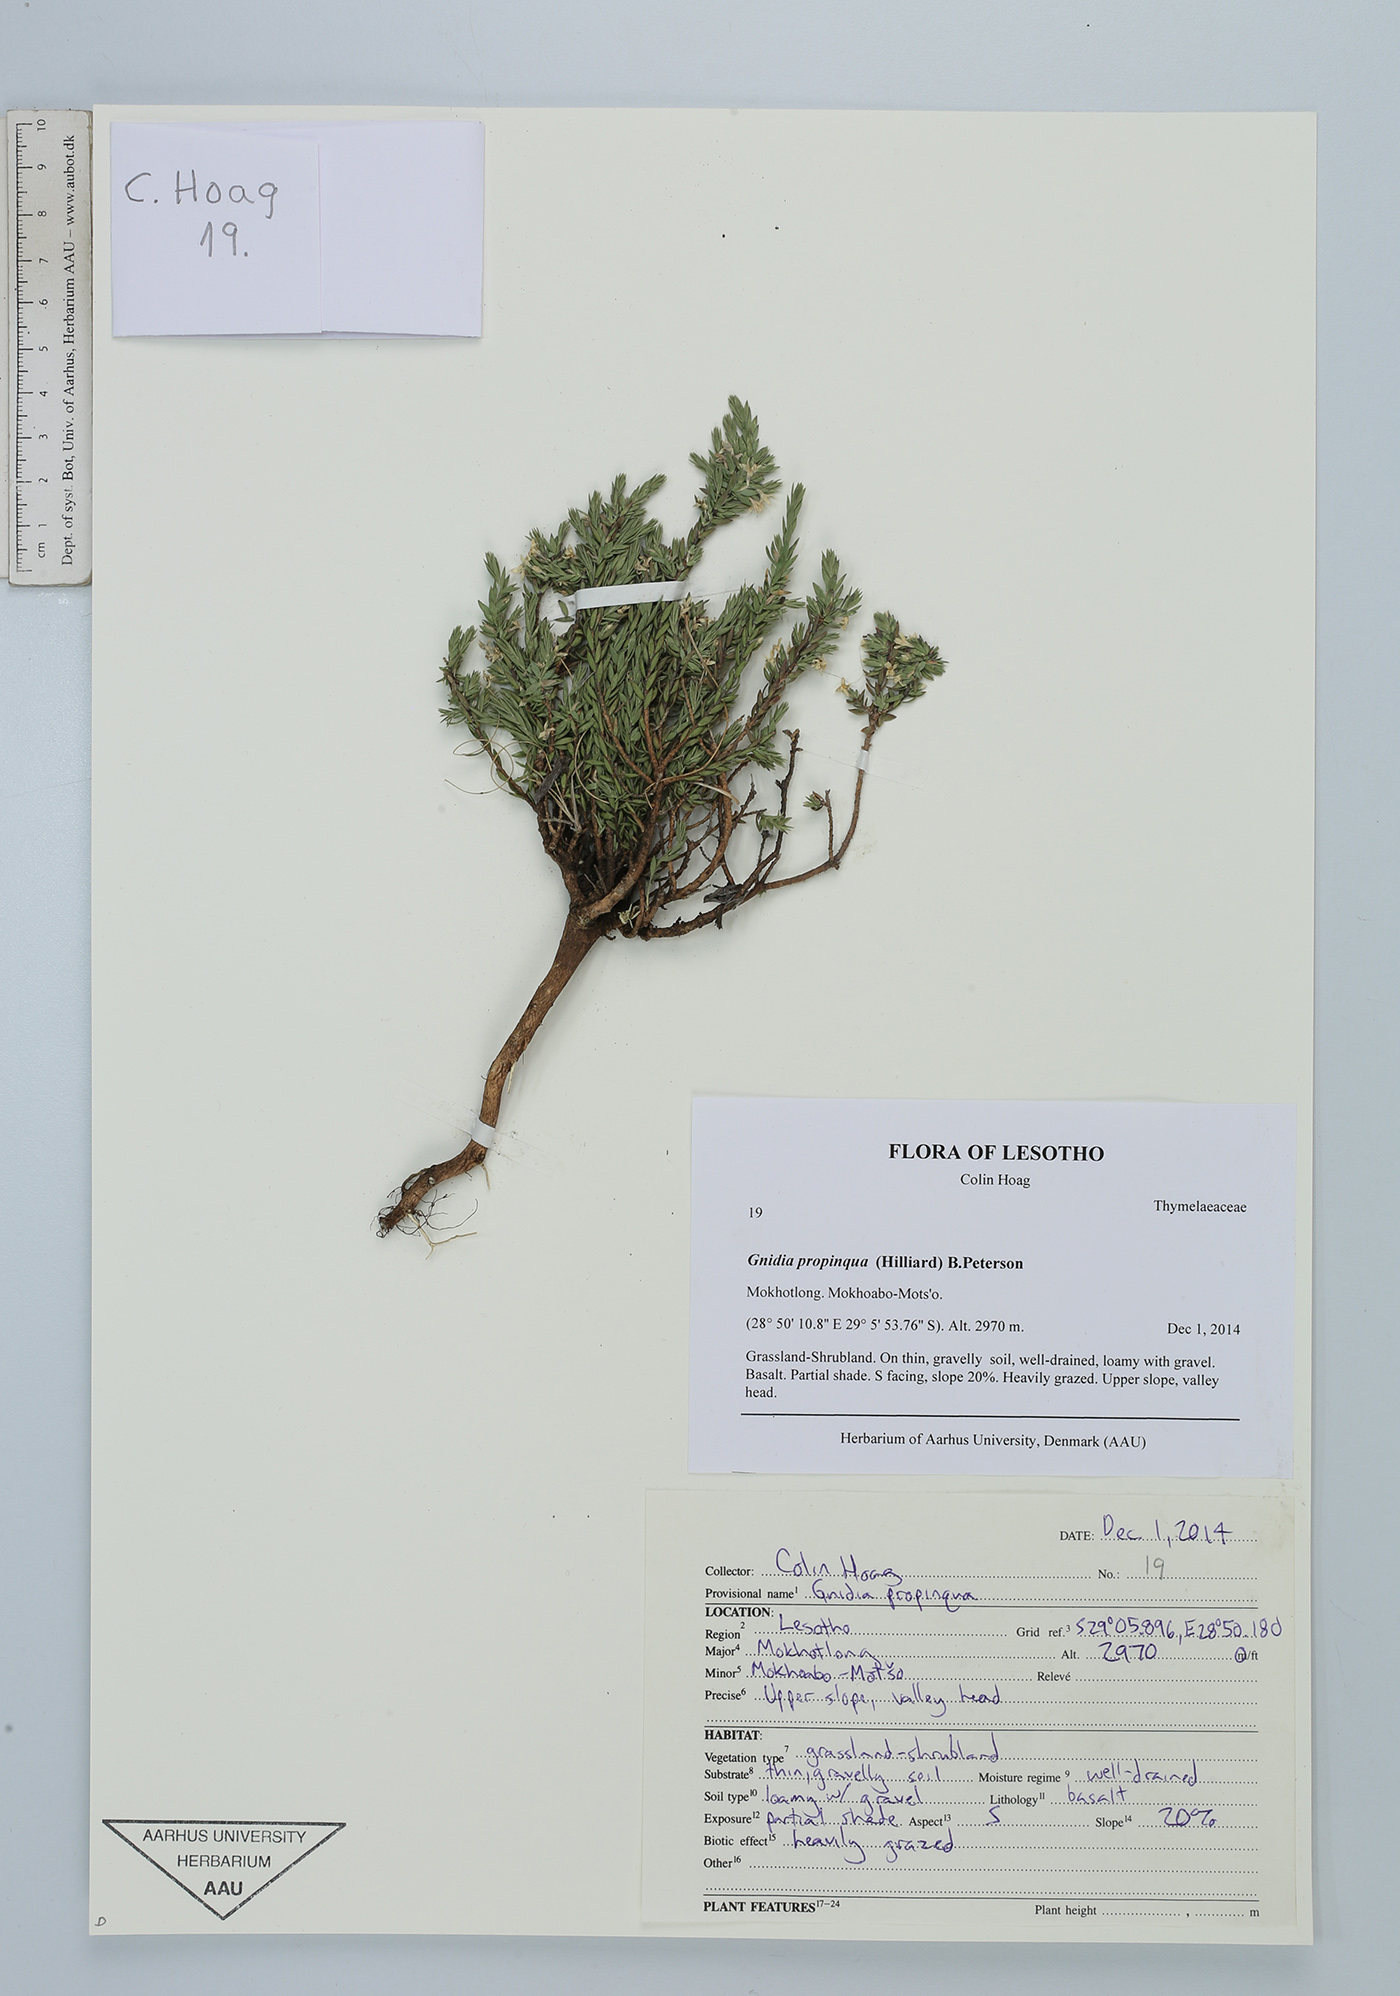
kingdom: Plantae
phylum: Tracheophyta
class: Magnoliopsida
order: Malvales
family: Thymelaeaceae
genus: Gnidia
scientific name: Gnidia propinqua
